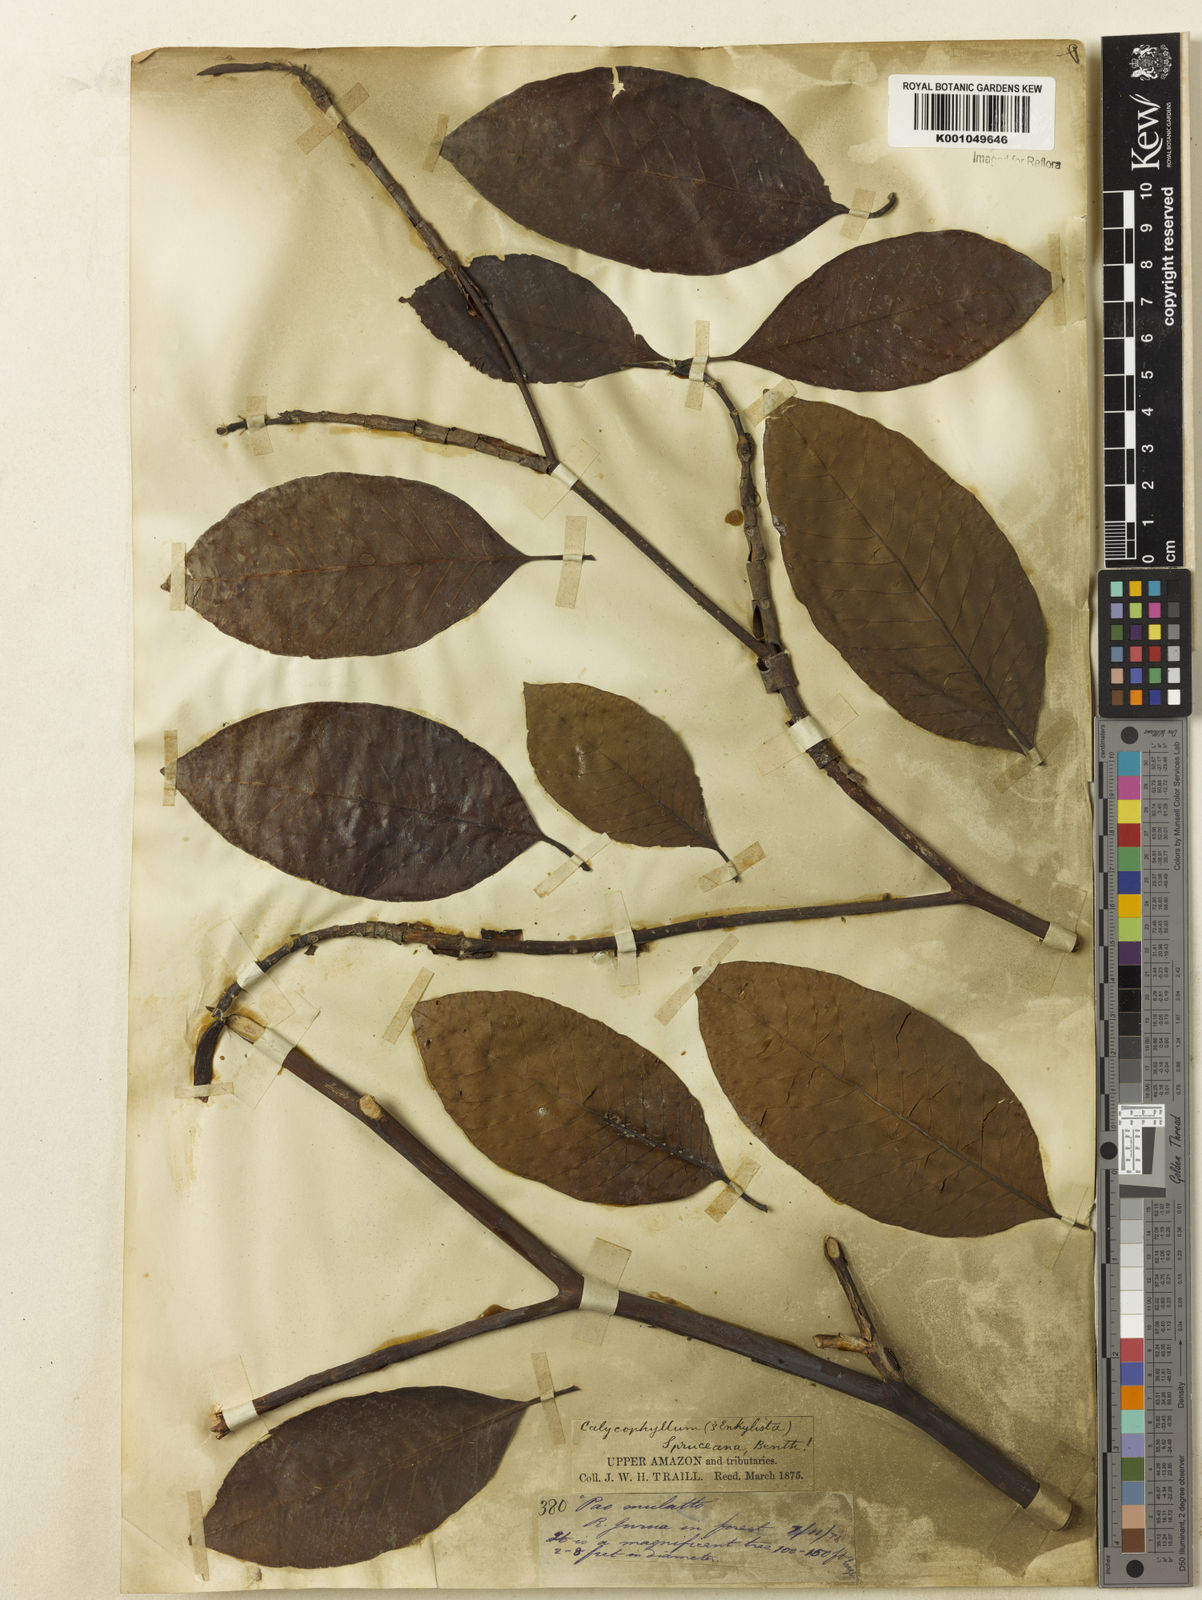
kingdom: Plantae
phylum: Tracheophyta
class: Magnoliopsida
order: Gentianales
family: Rubiaceae
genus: Calycophyllum
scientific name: Calycophyllum spruceanum
